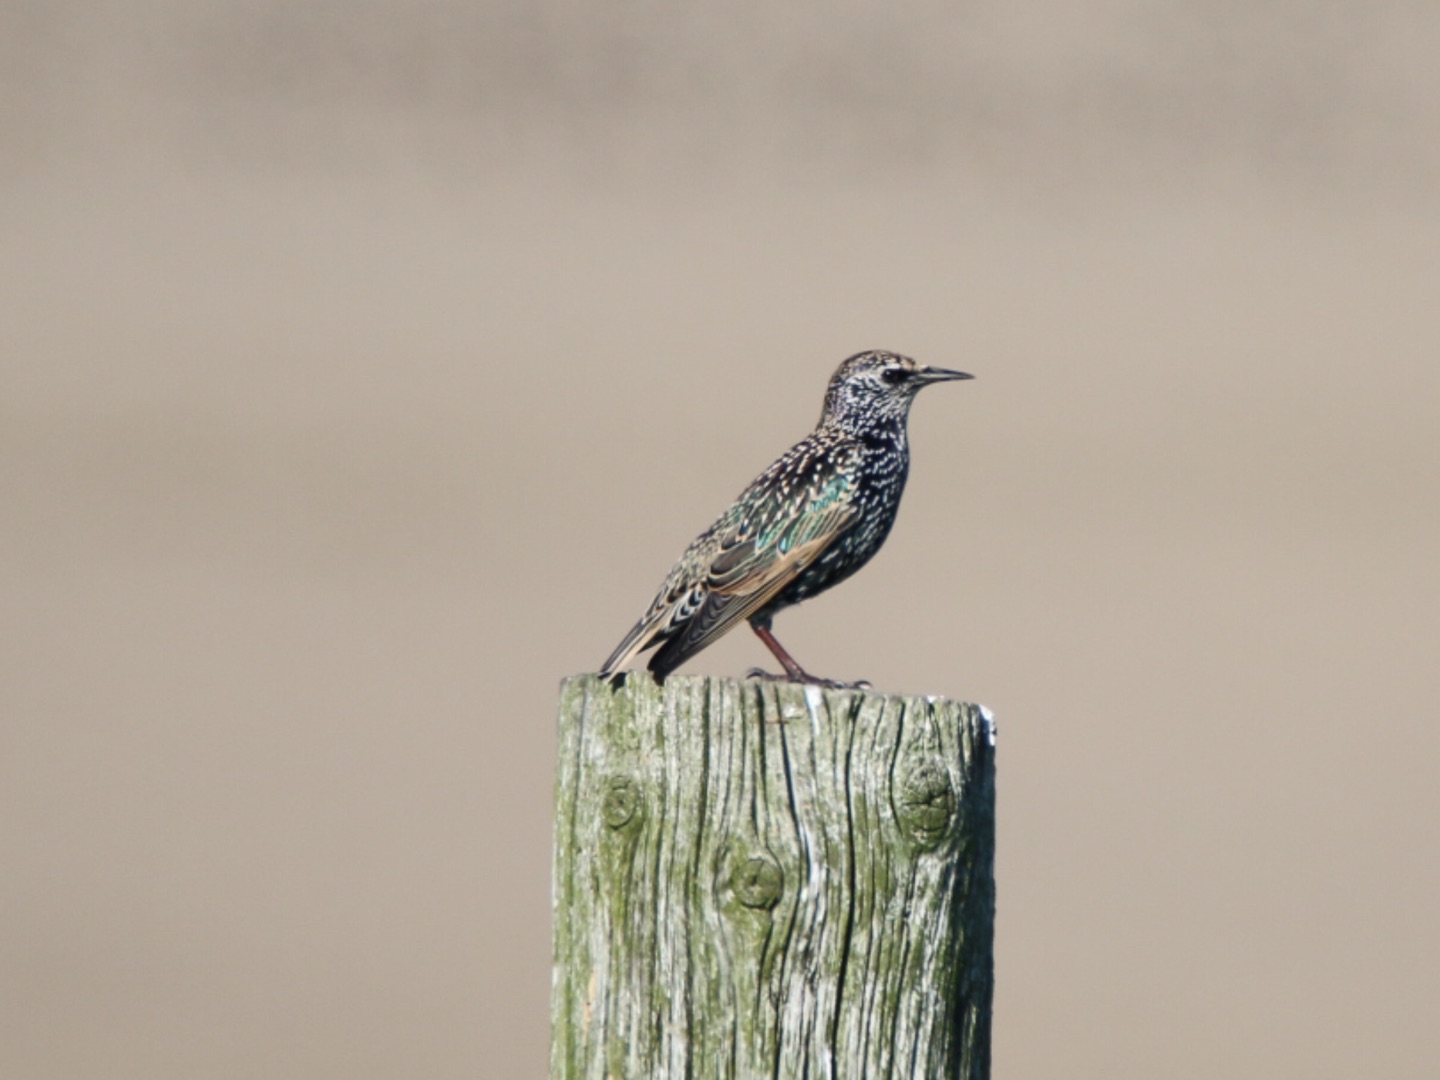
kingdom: Animalia
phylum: Chordata
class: Aves
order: Passeriformes
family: Sturnidae
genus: Sturnus
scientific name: Sturnus vulgaris
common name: Stær
